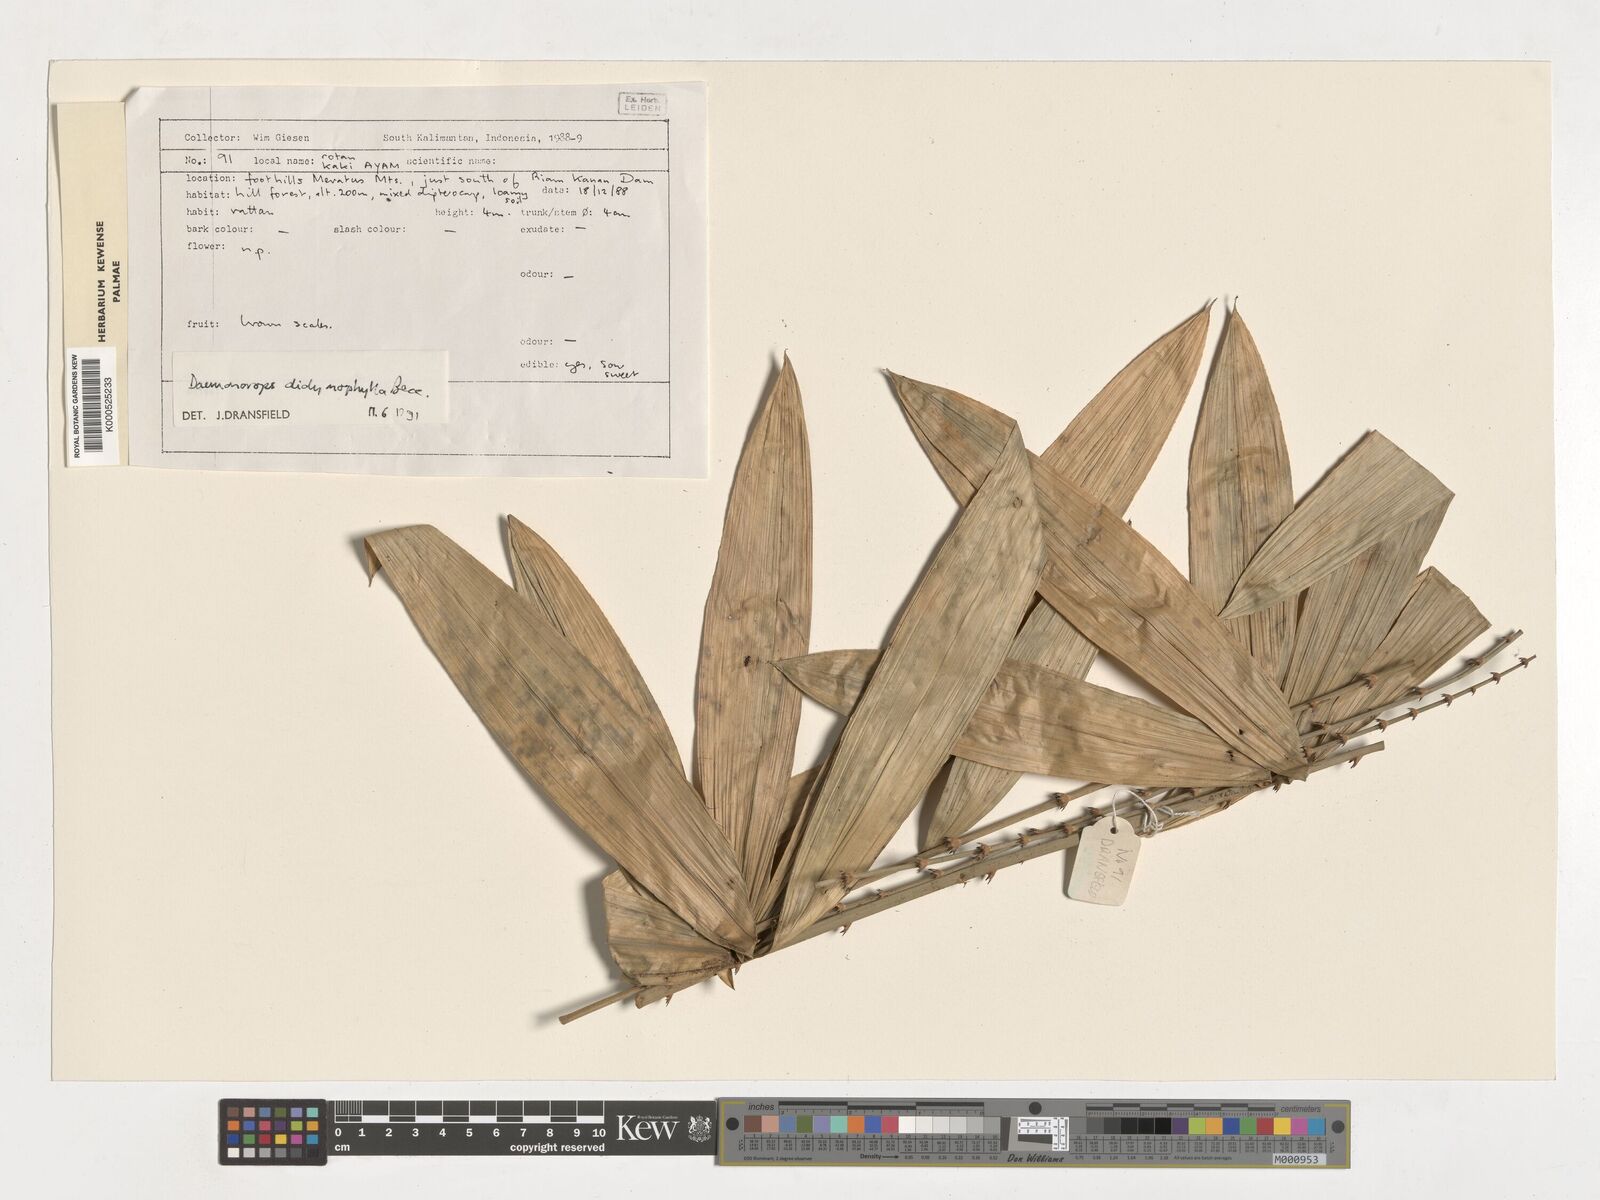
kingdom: Plantae
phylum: Tracheophyta
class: Liliopsida
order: Arecales
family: Arecaceae
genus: Calamus
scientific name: Calamus gracilipes
